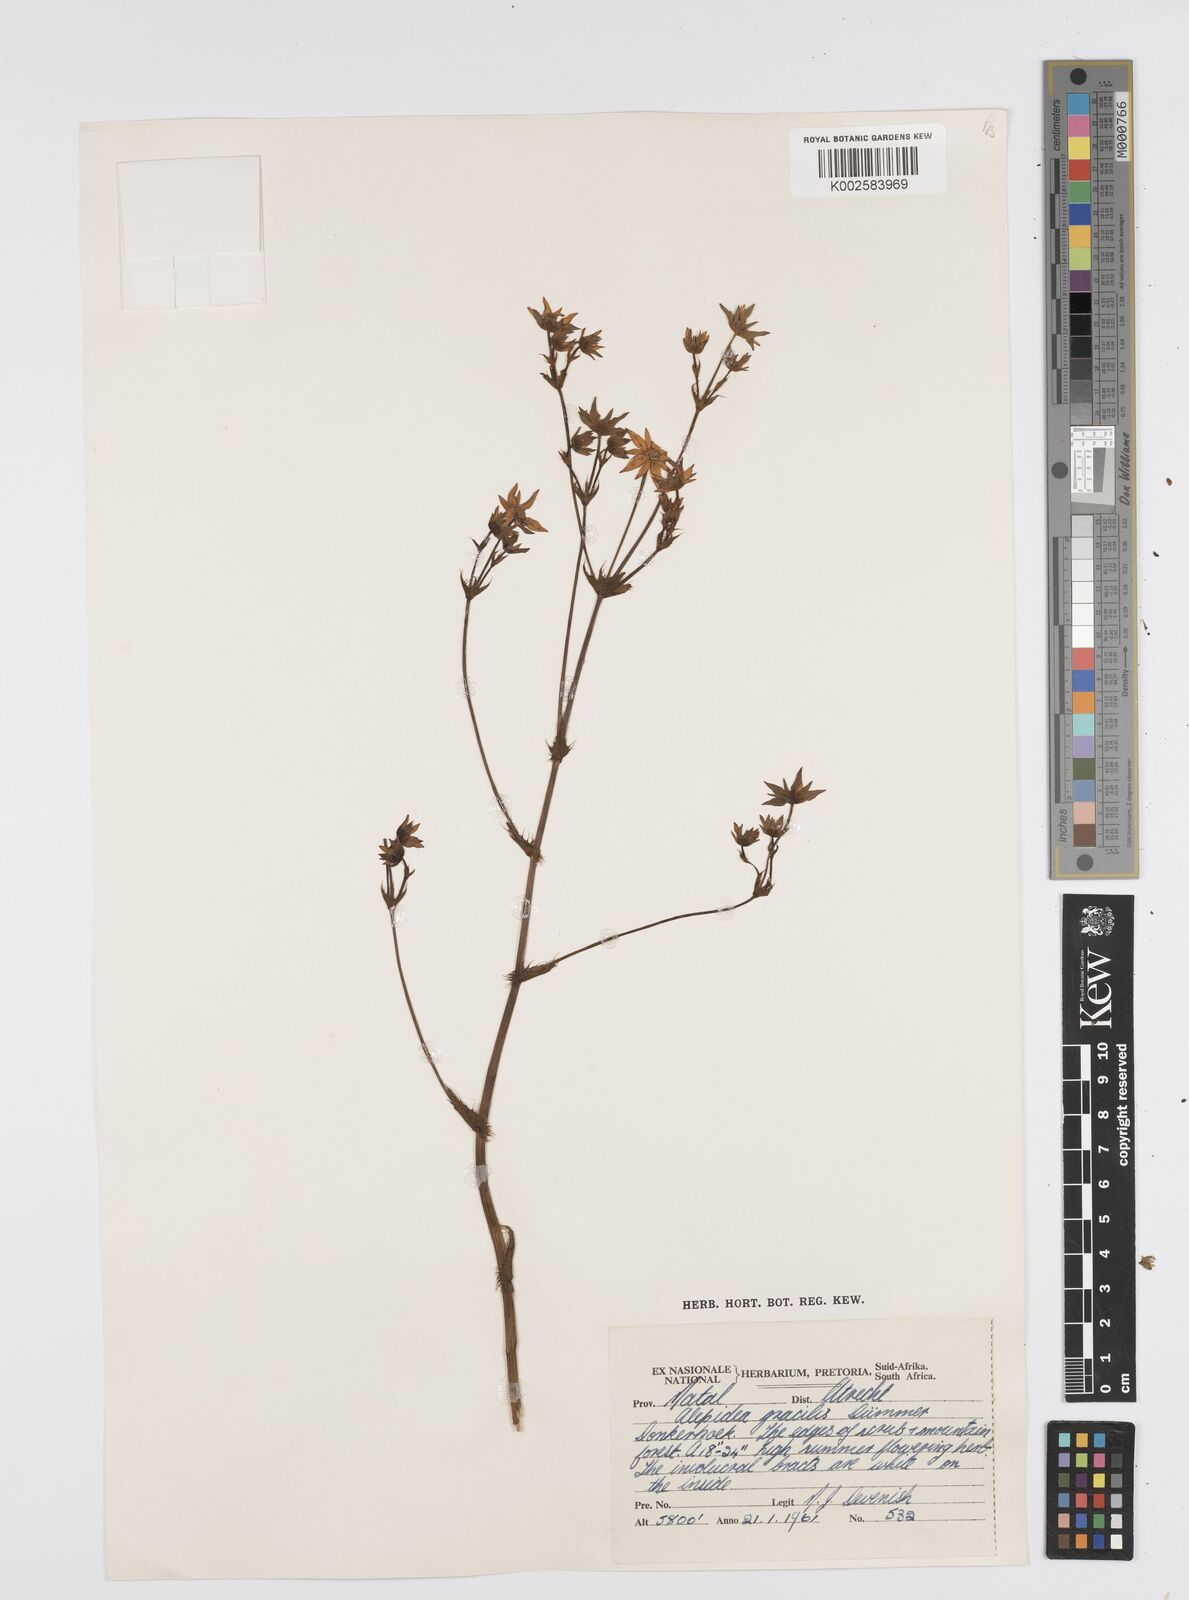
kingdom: Plantae
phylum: Tracheophyta
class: Magnoliopsida
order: Apiales
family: Apiaceae
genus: Alepidea
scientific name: Alepidea
